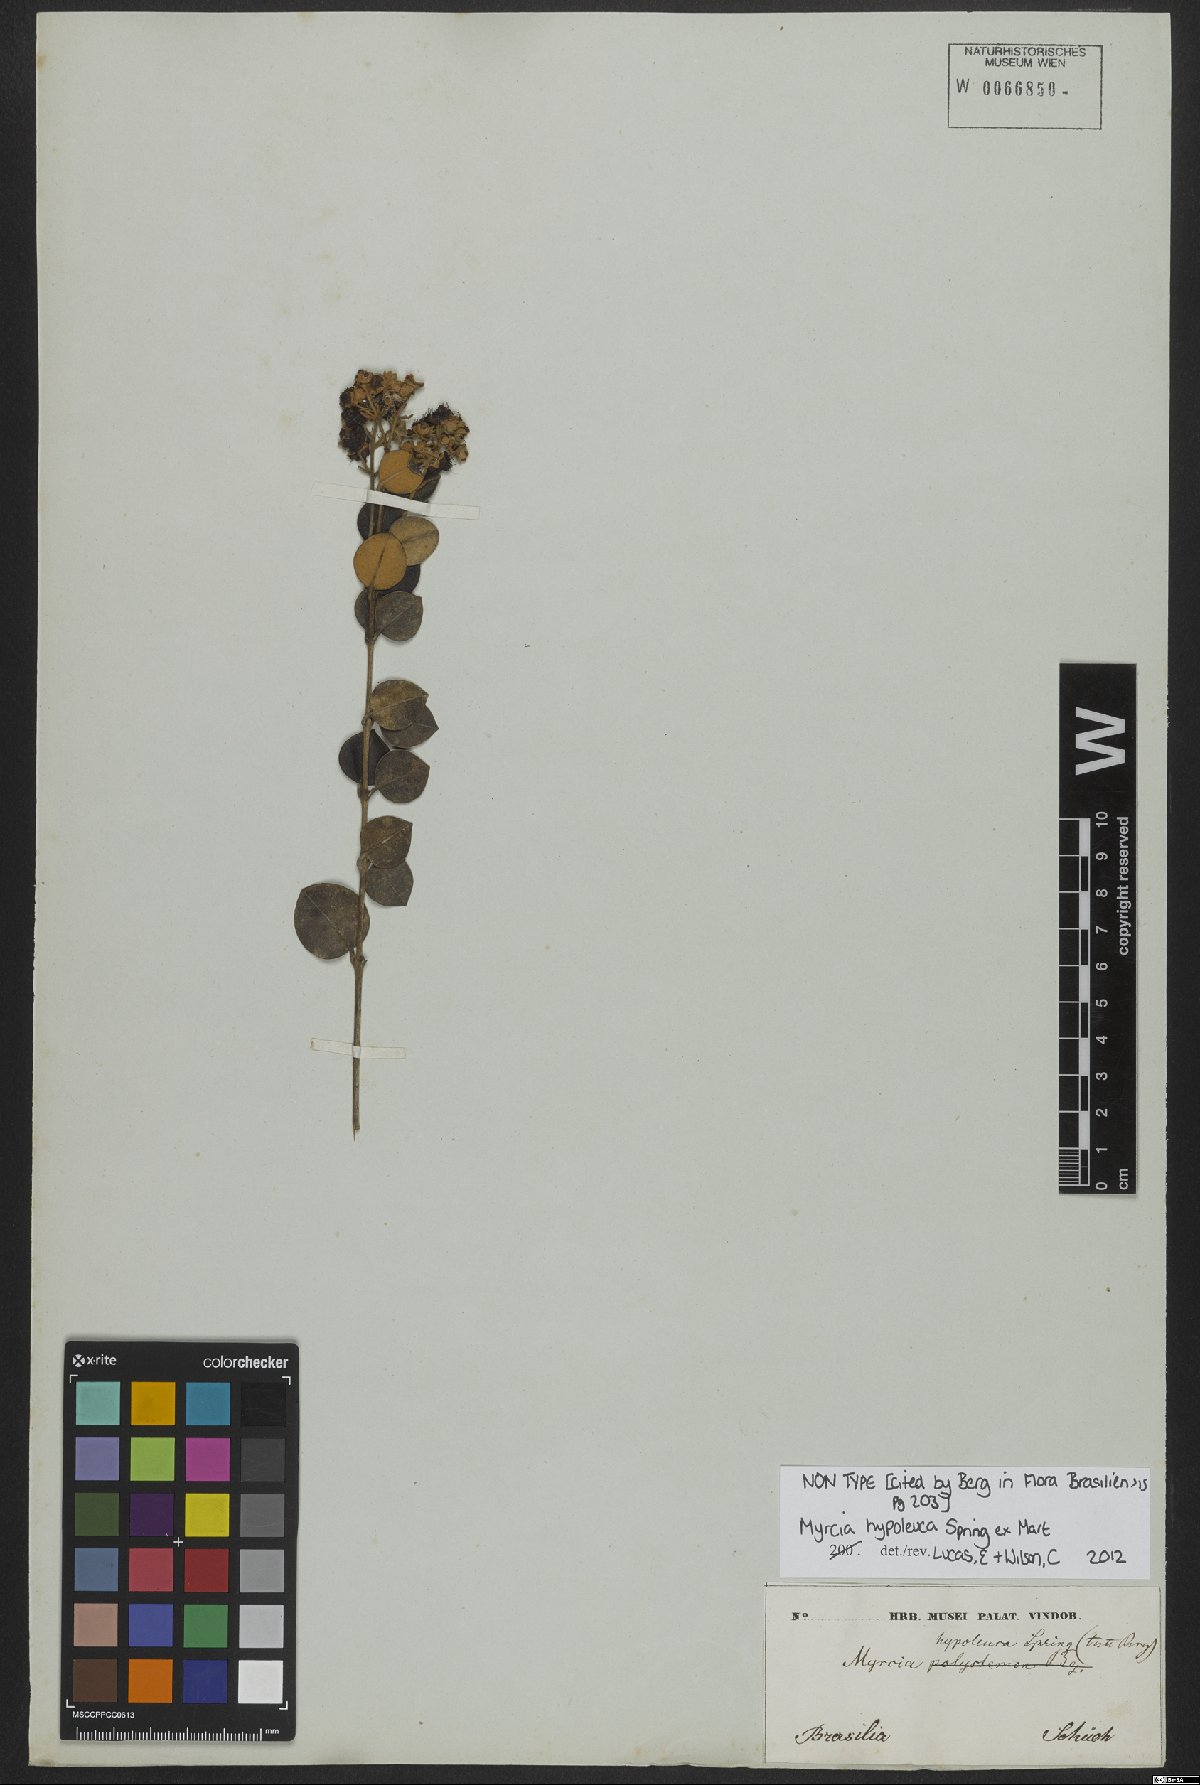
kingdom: Plantae
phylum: Tracheophyta
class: Magnoliopsida
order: Myrtales
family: Myrtaceae
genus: Myrcia
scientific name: Myrcia hypoleuca
